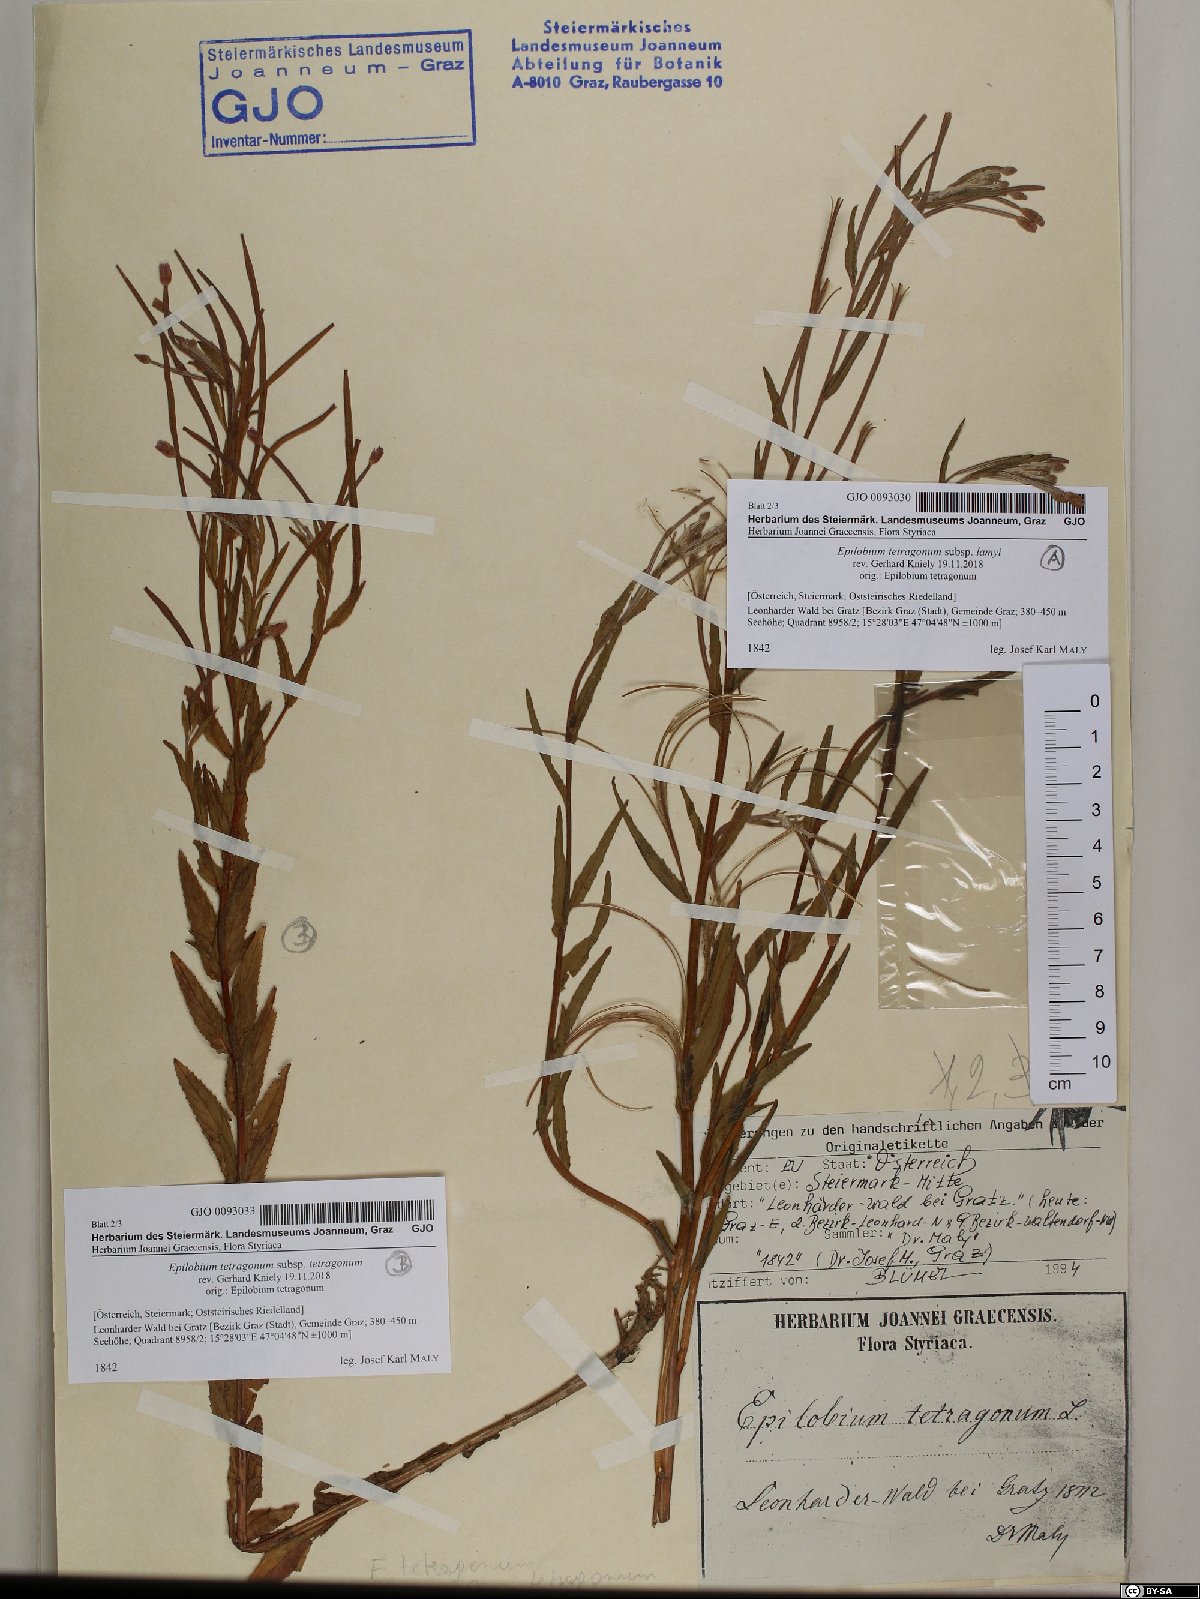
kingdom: Plantae
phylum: Tracheophyta
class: Magnoliopsida
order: Myrtales
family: Onagraceae
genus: Epilobium
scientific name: Epilobium tetragonum
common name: Square-stemmed willowherb
